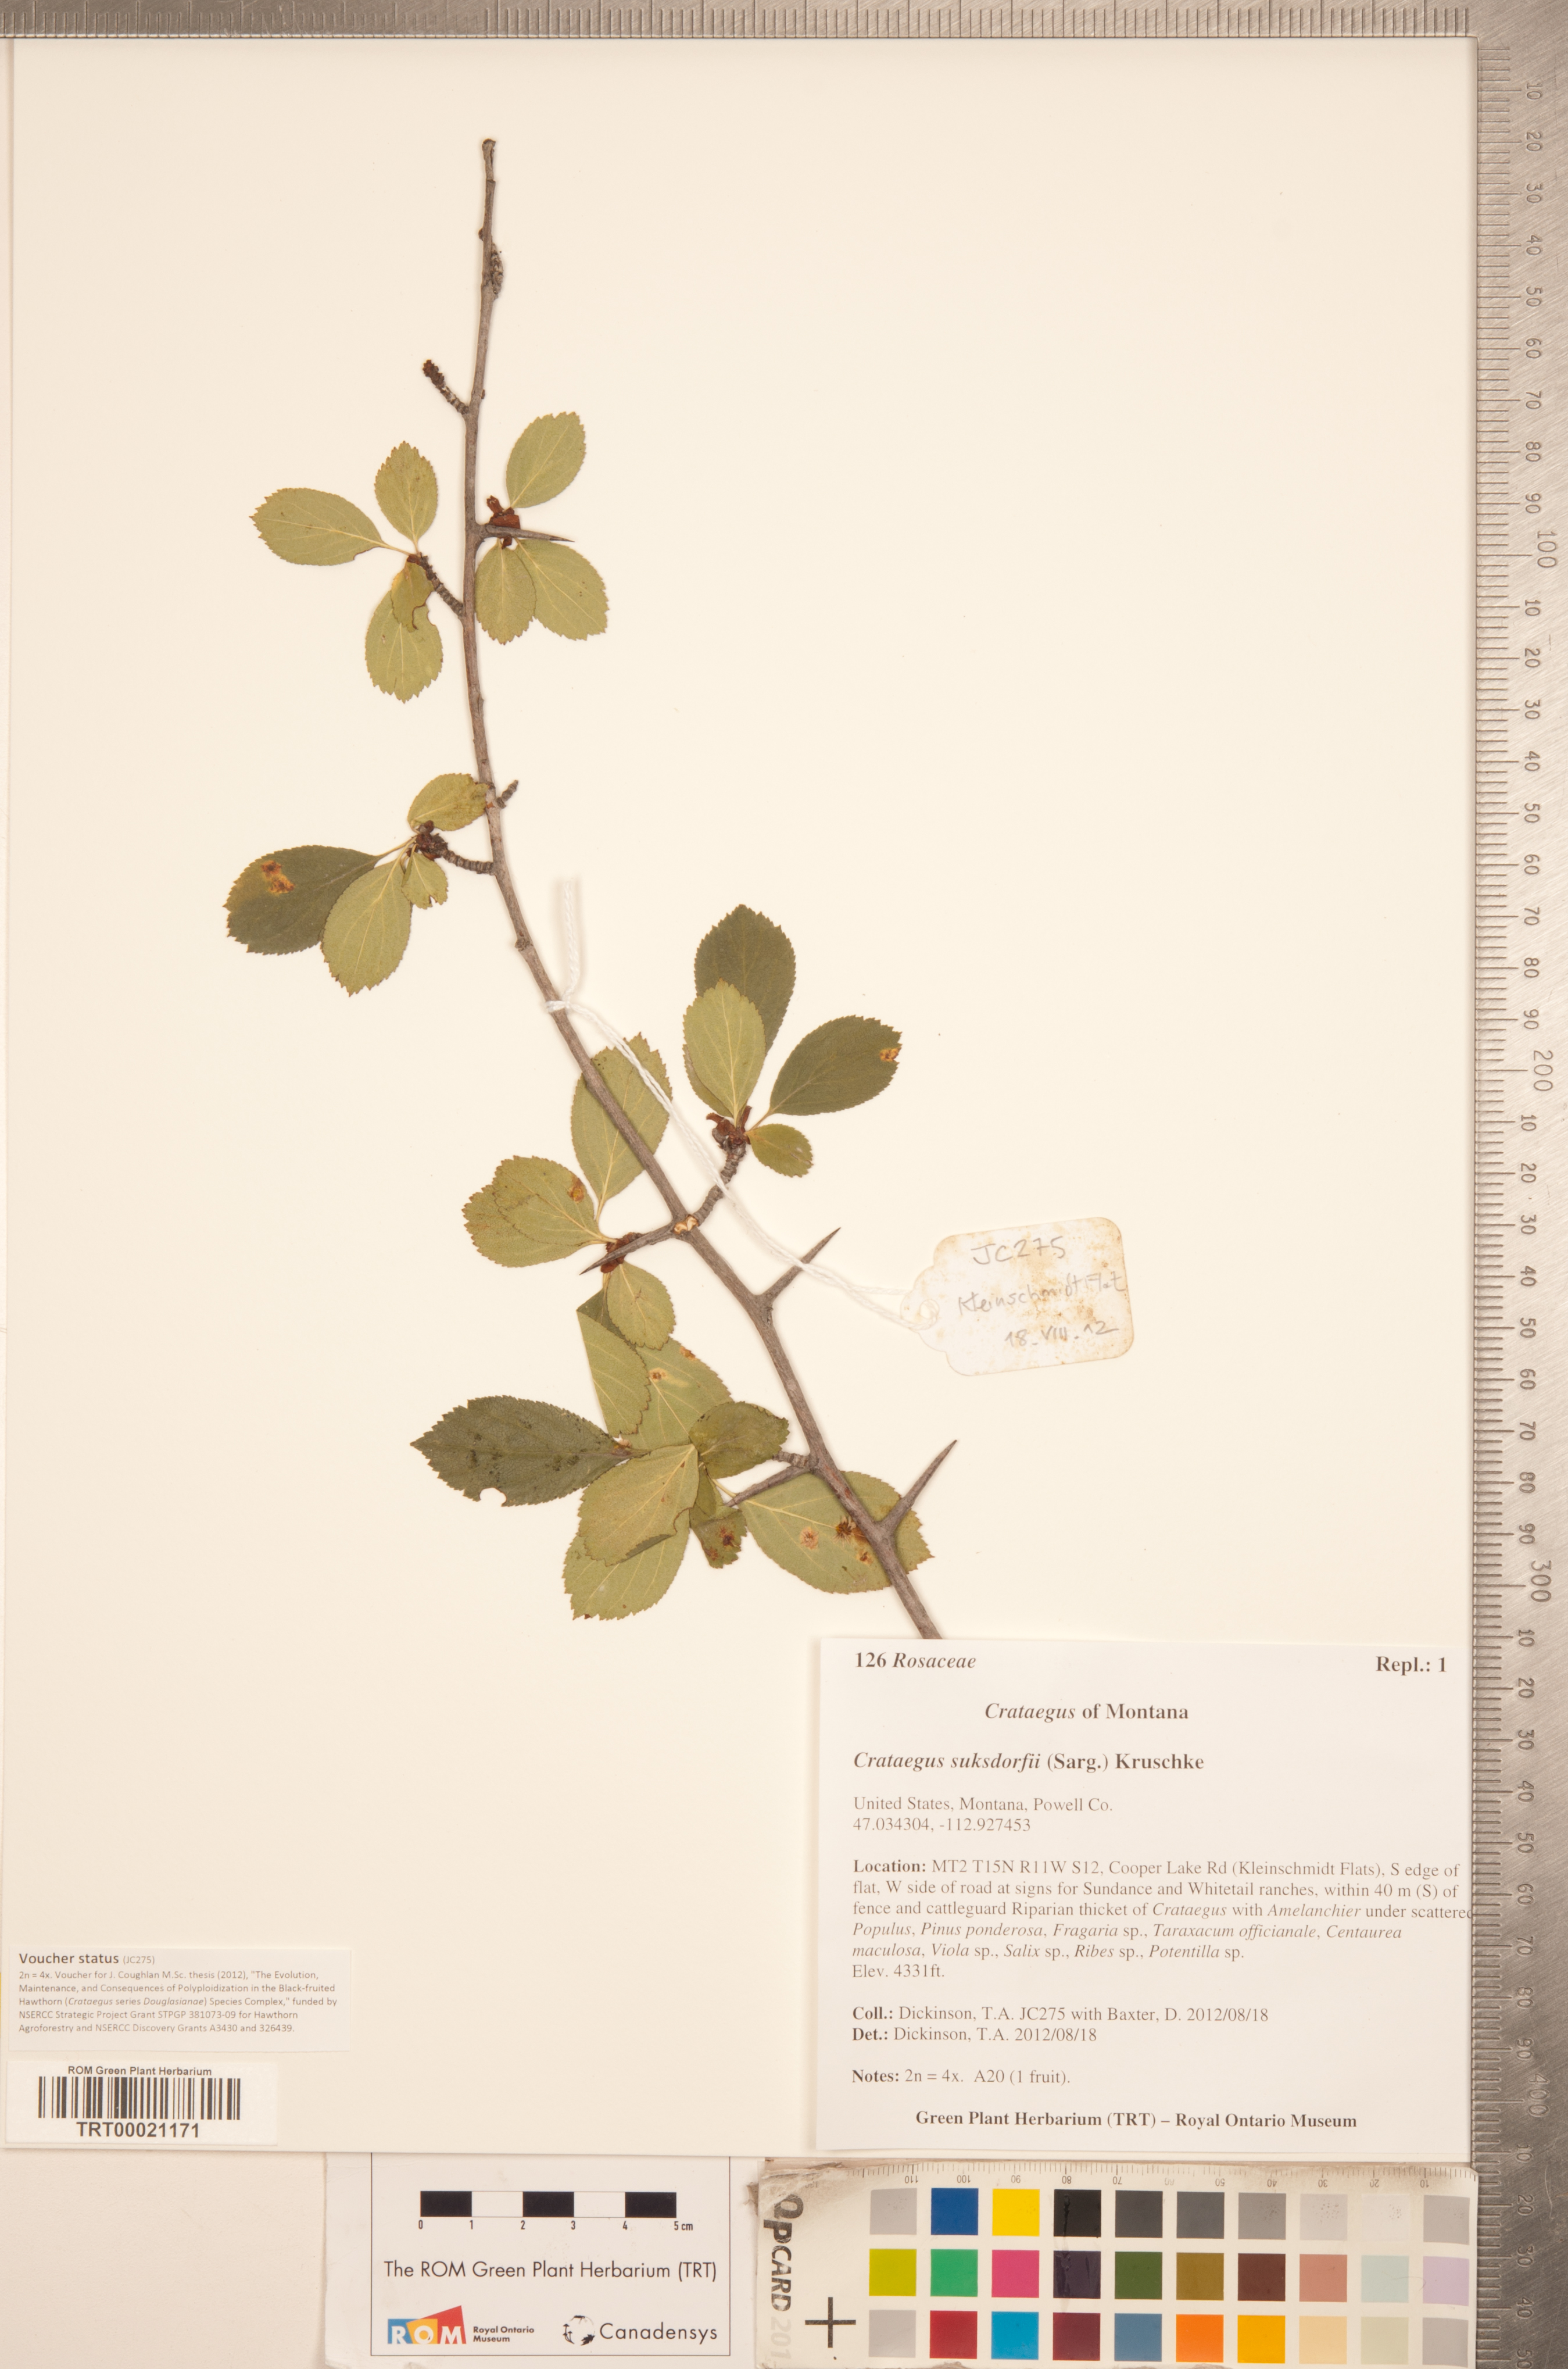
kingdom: Plantae
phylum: Tracheophyta
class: Magnoliopsida
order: Rosales
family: Rosaceae
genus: Crataegus
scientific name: Crataegus gaylussacia
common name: Huckleberry hawthorn
